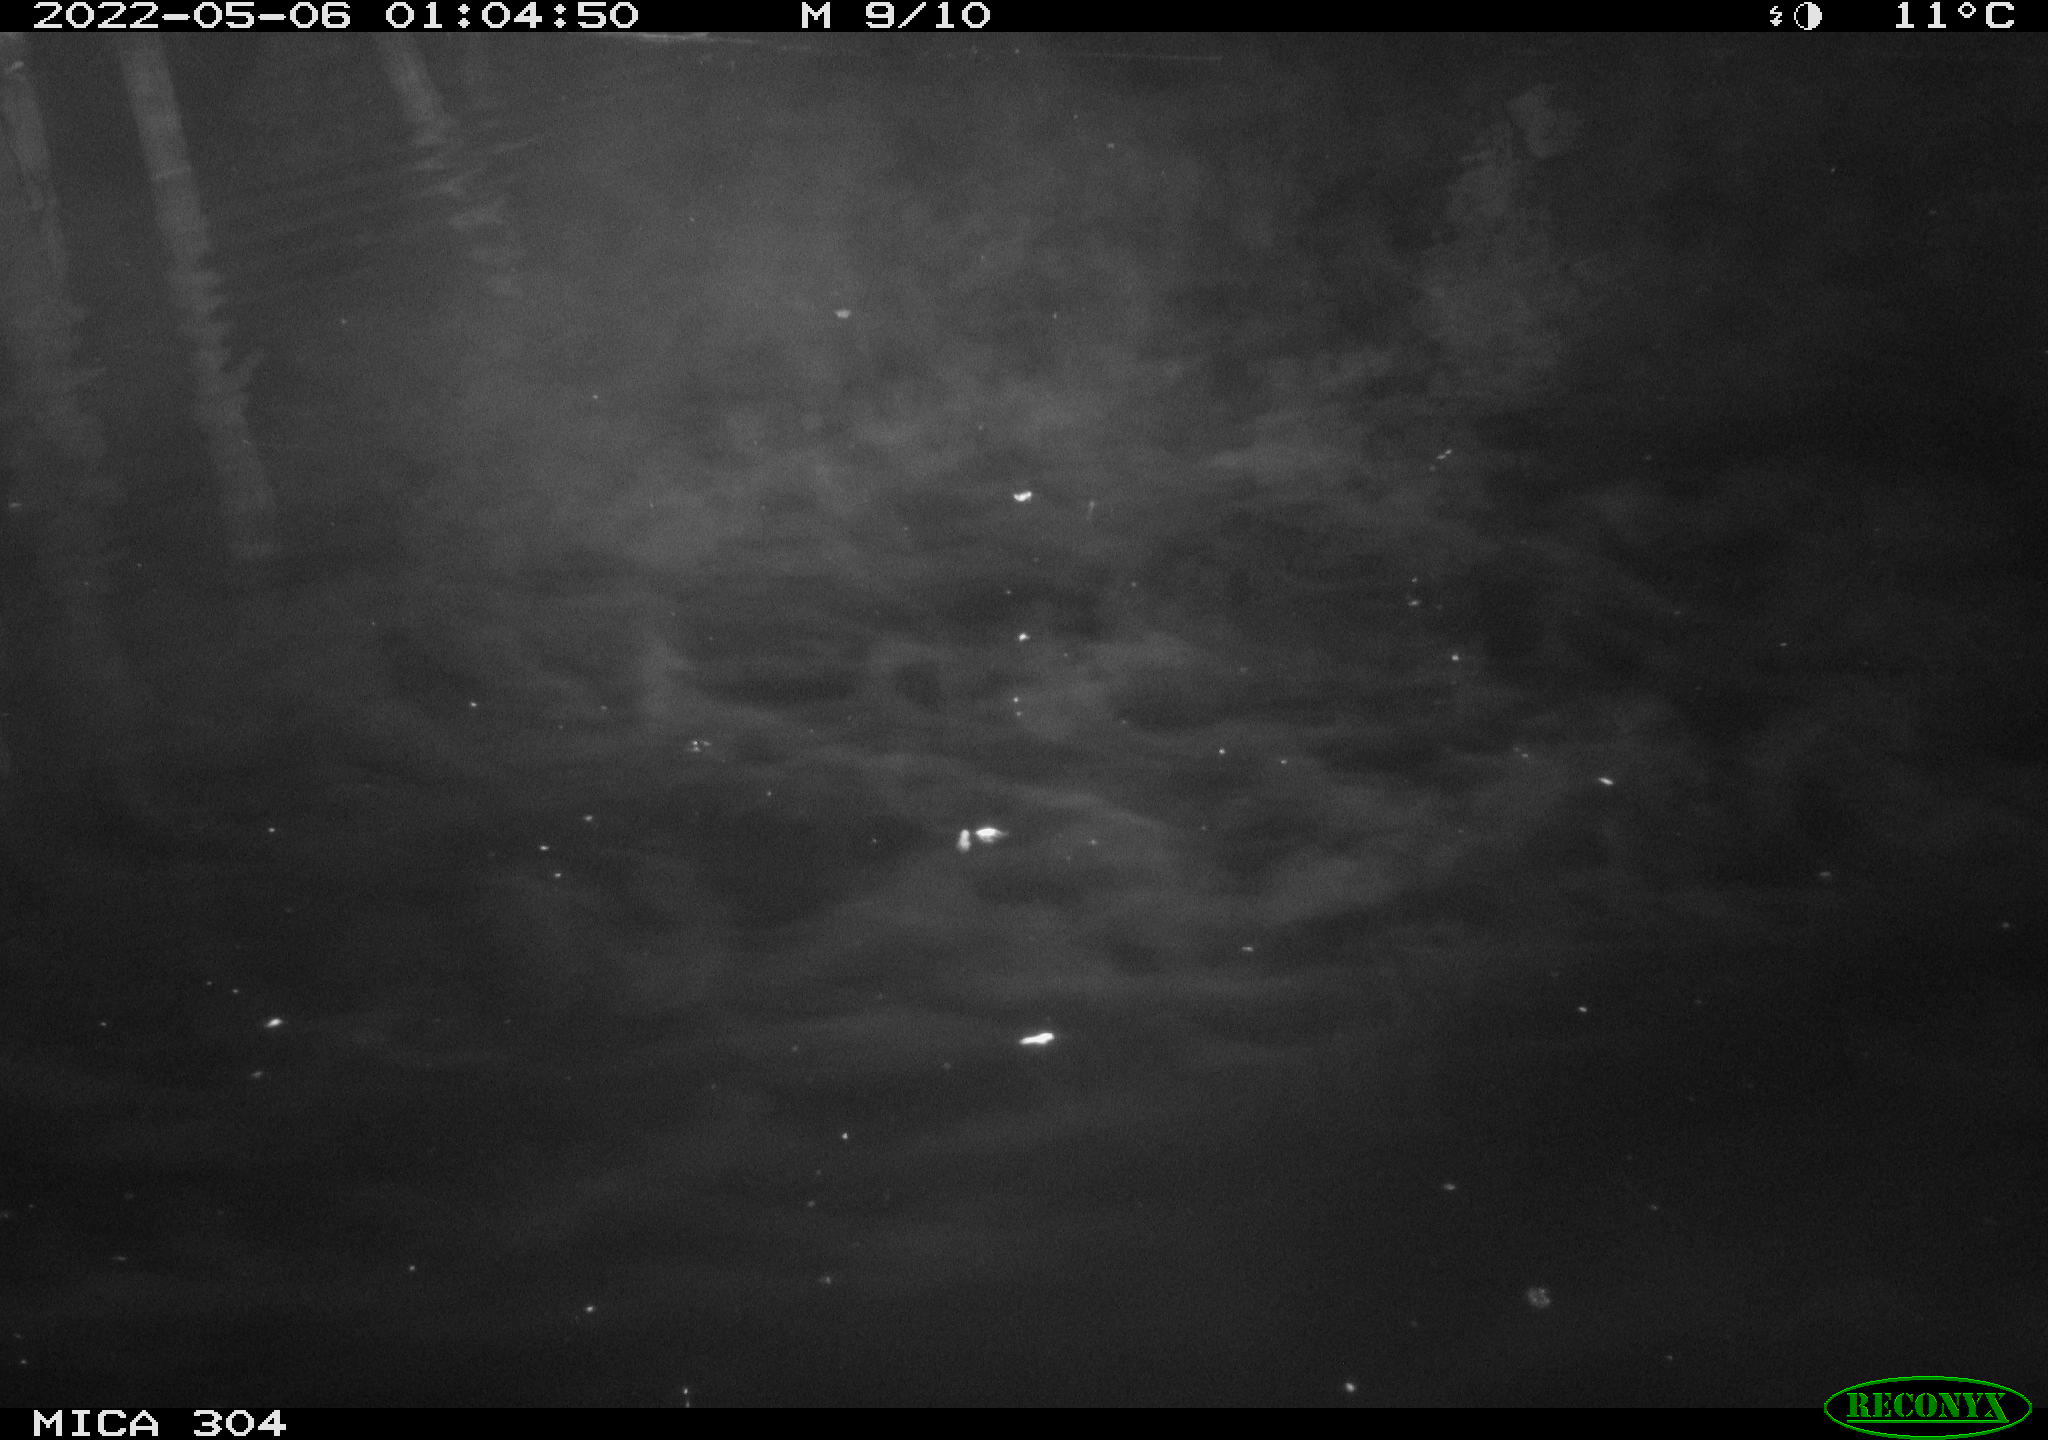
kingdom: Animalia
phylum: Chordata
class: Mammalia
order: Rodentia
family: Cricetidae
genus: Ondatra
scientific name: Ondatra zibethicus
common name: Muskrat
